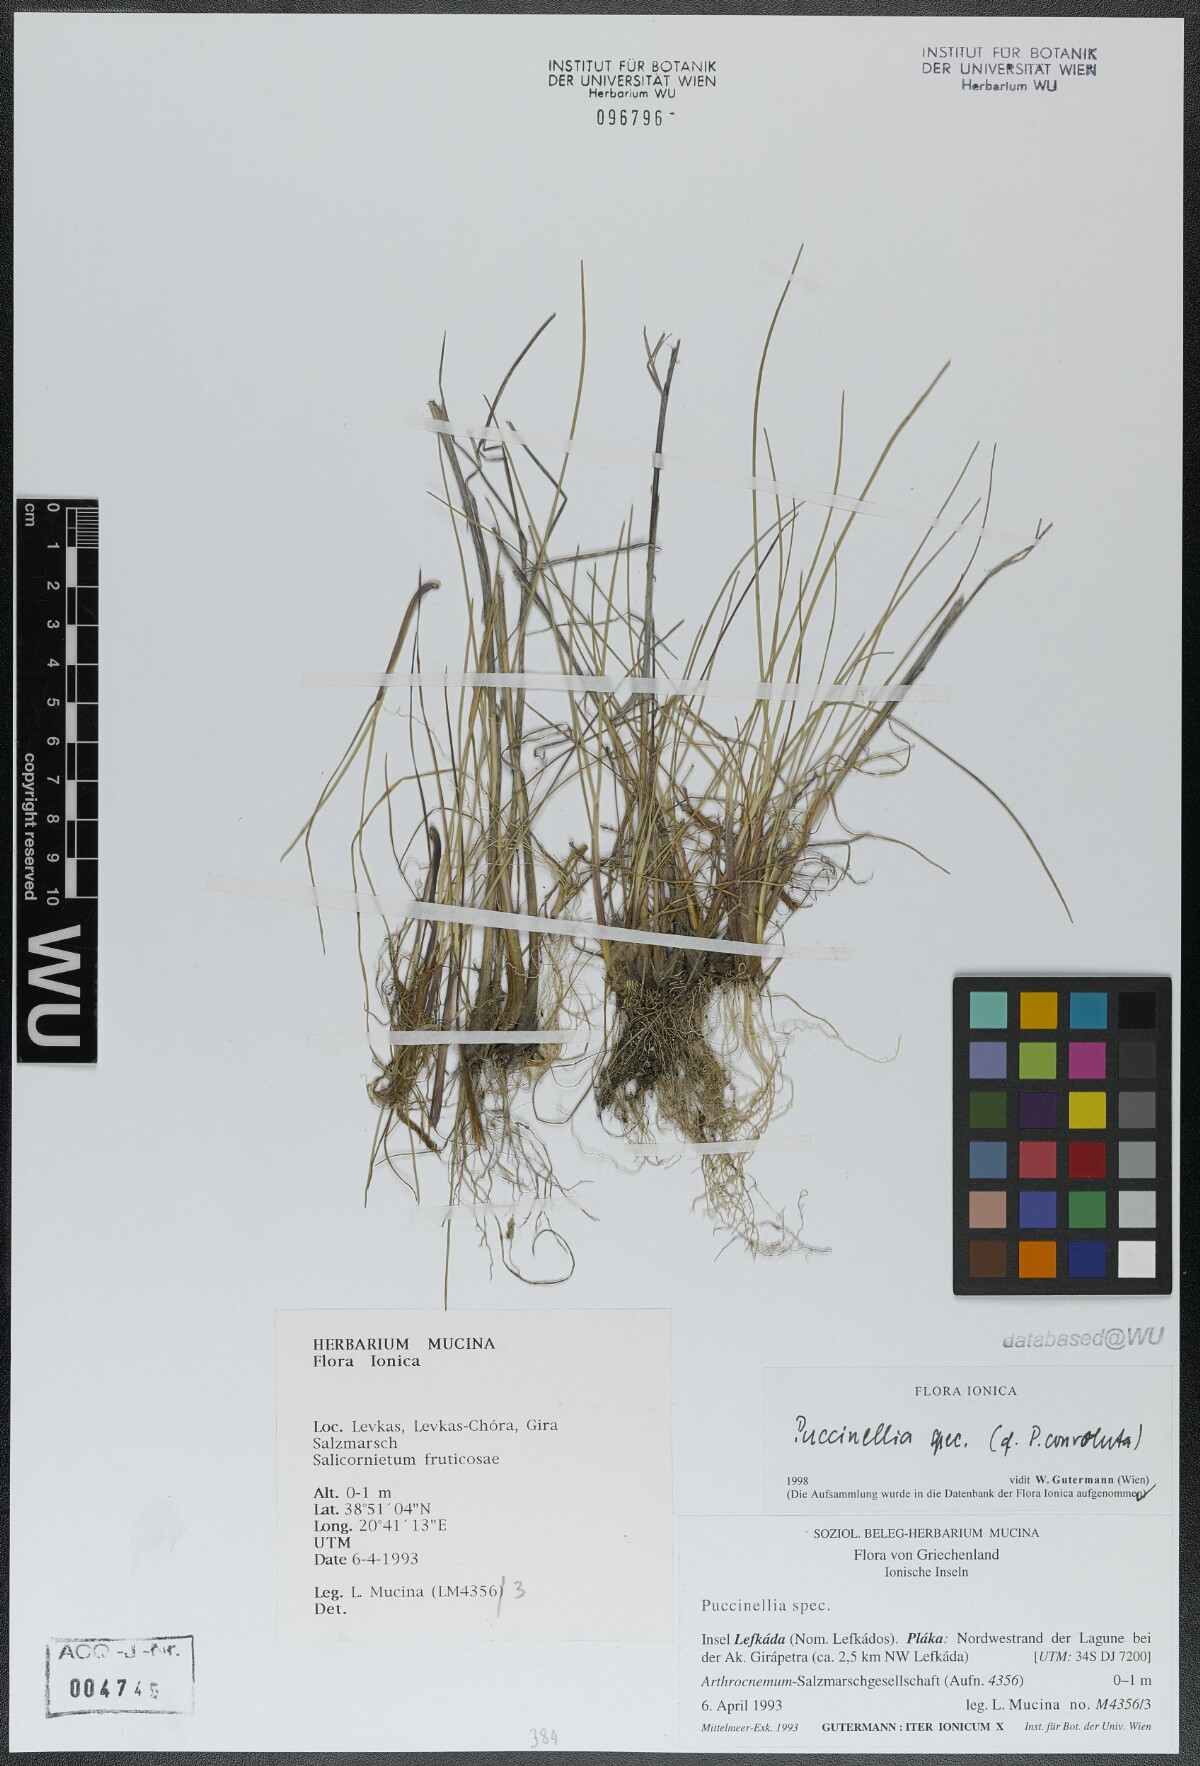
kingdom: Plantae
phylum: Tracheophyta
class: Liliopsida
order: Poales
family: Poaceae
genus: Puccinellia
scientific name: Puccinellia convoluta
